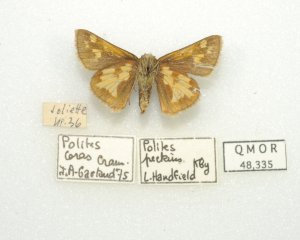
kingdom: Animalia
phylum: Arthropoda
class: Insecta
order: Lepidoptera
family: Hesperiidae
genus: Polites
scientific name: Polites coras
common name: Peck's Skipper
